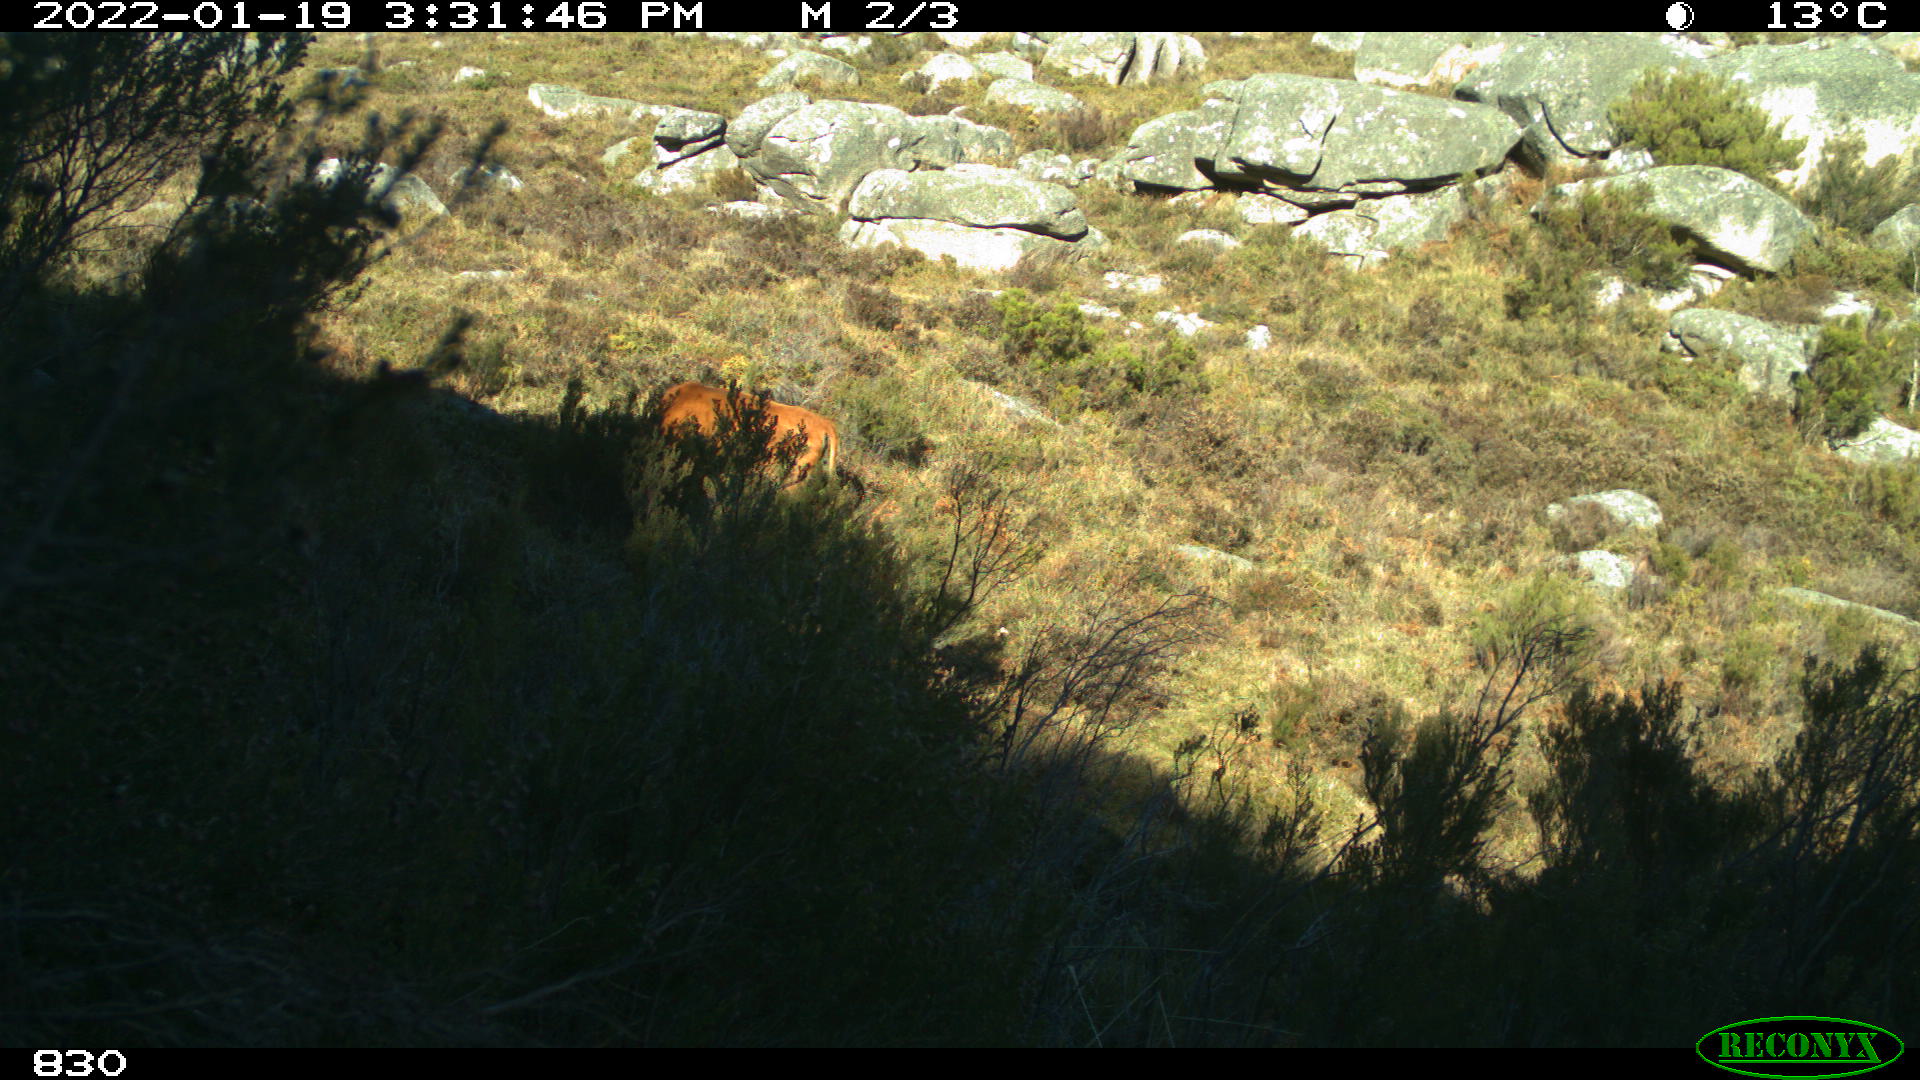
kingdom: Animalia
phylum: Chordata
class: Mammalia
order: Artiodactyla
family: Bovidae
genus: Bos
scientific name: Bos taurus
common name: Domesticated cattle
